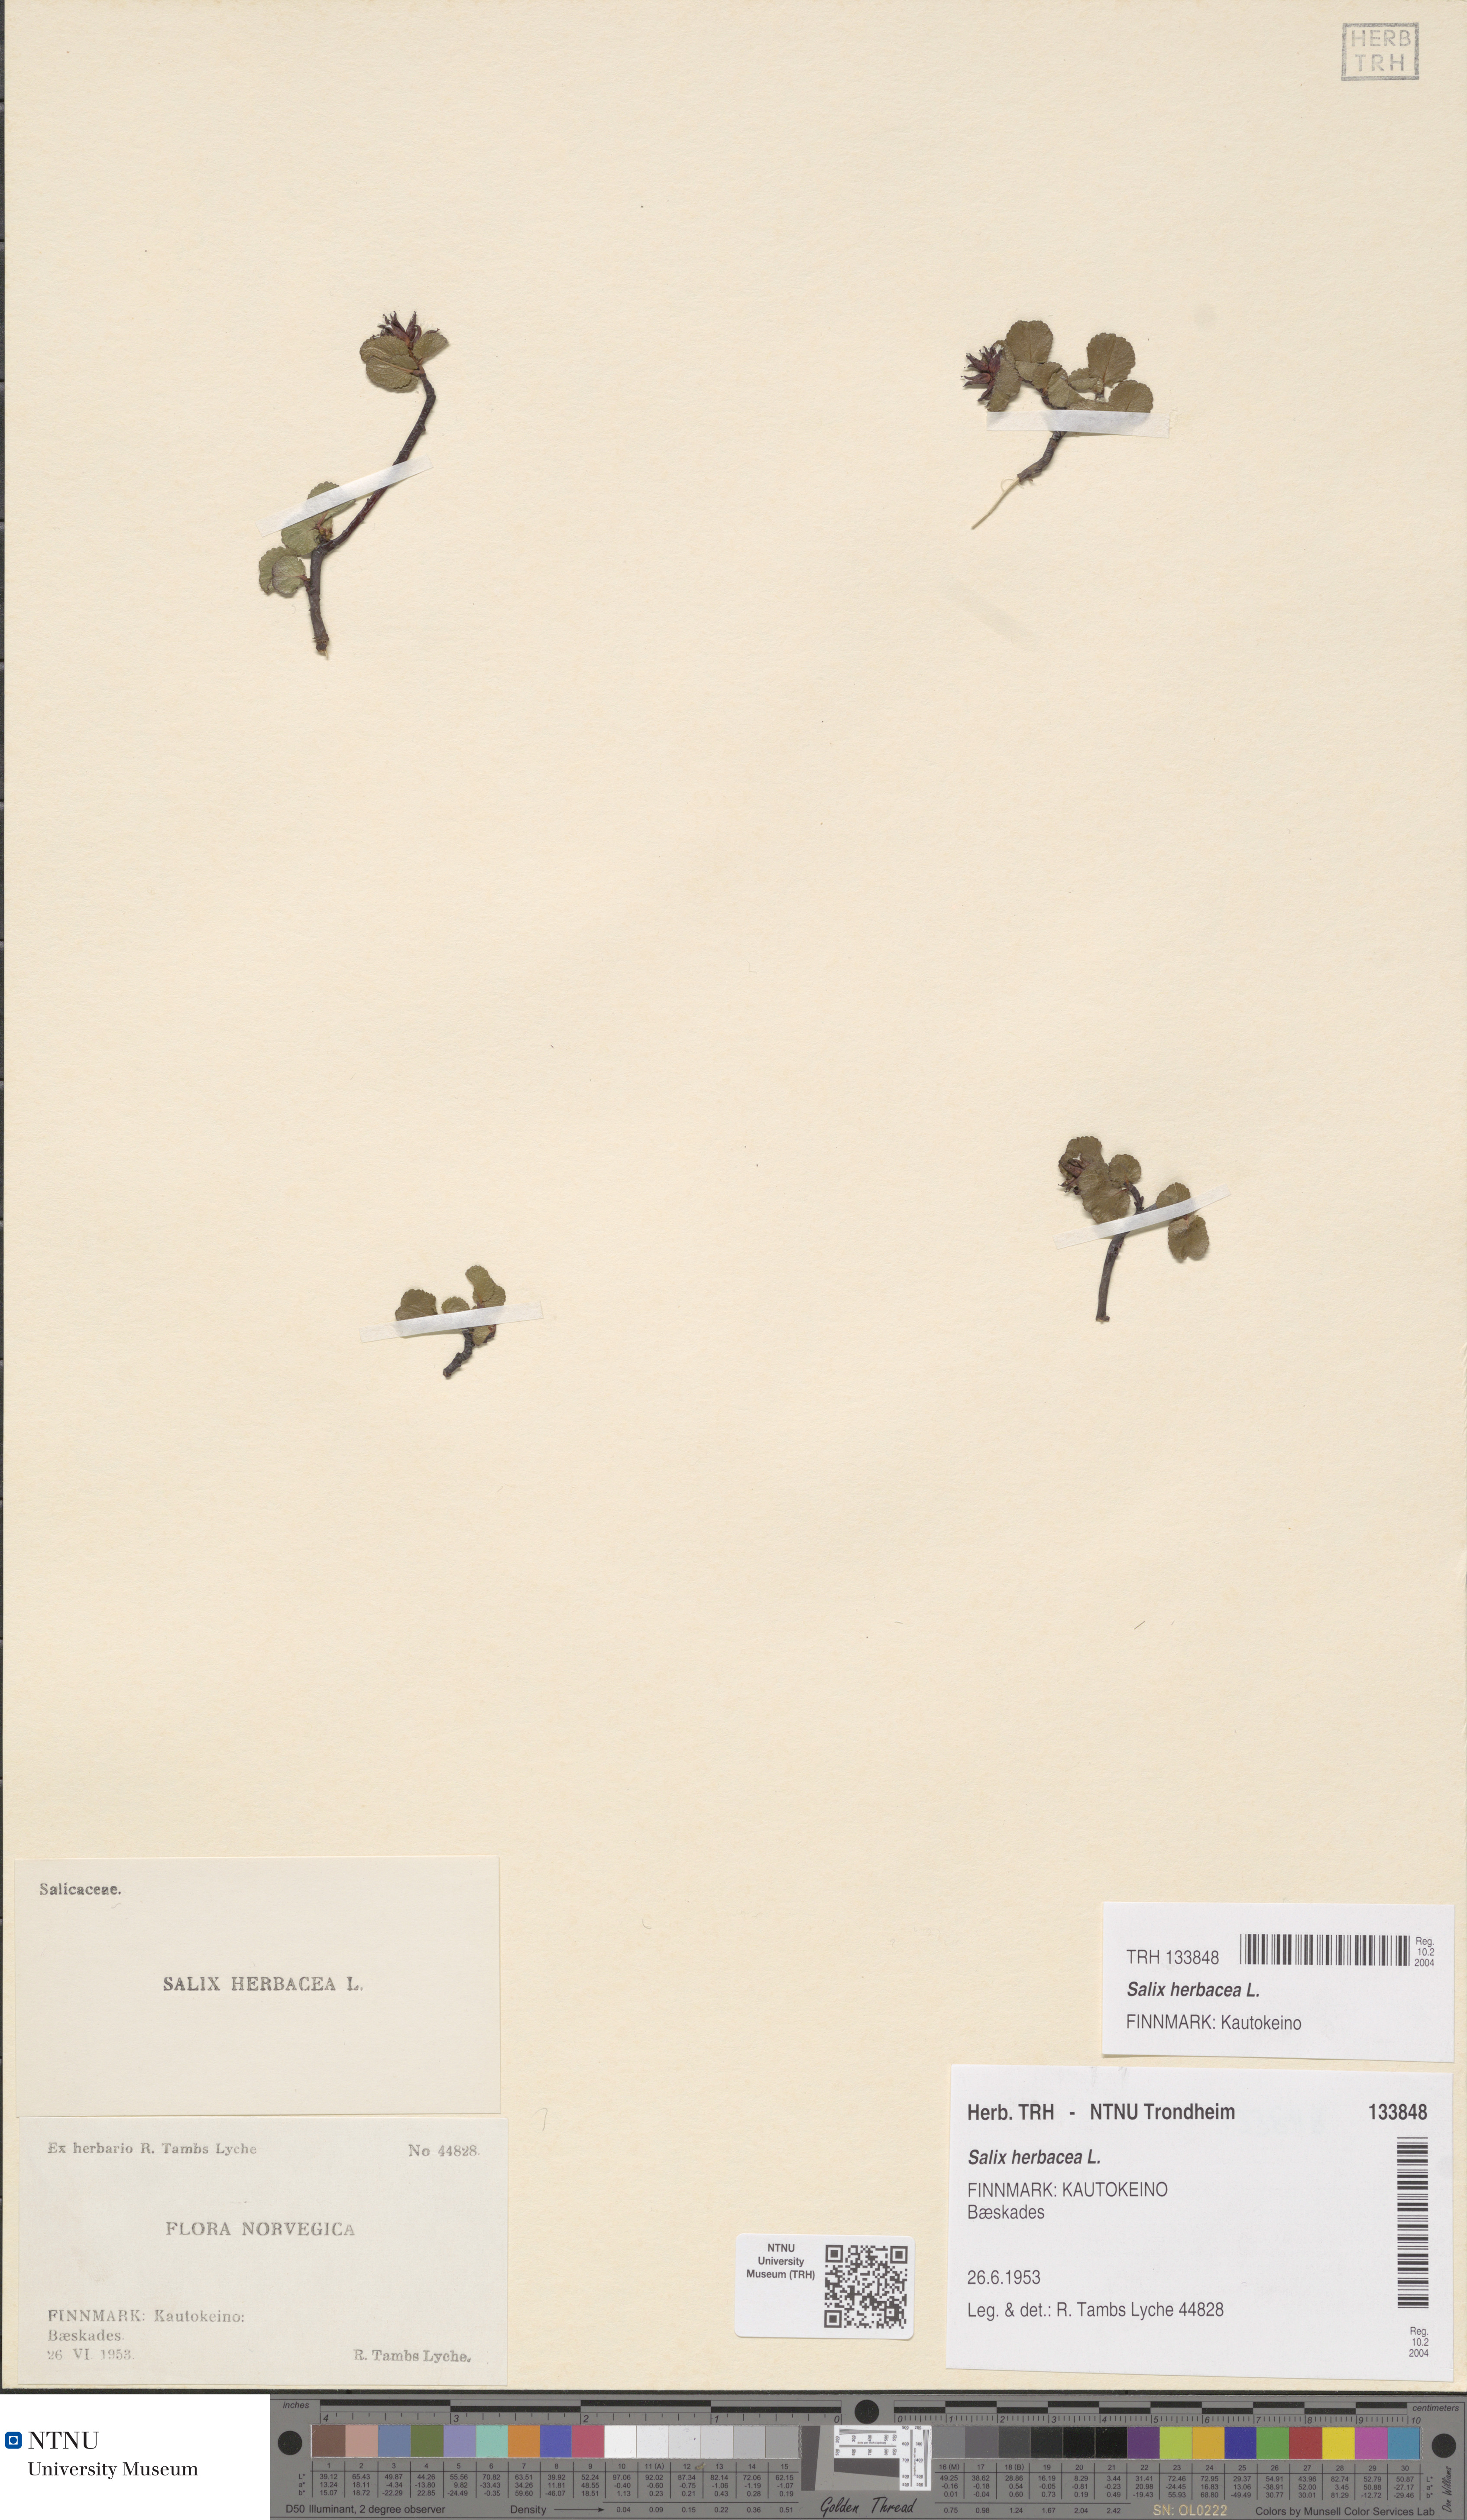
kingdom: Plantae
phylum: Tracheophyta
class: Magnoliopsida
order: Malpighiales
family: Salicaceae
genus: Salix
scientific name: Salix herbacea
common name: Dwarf willow
